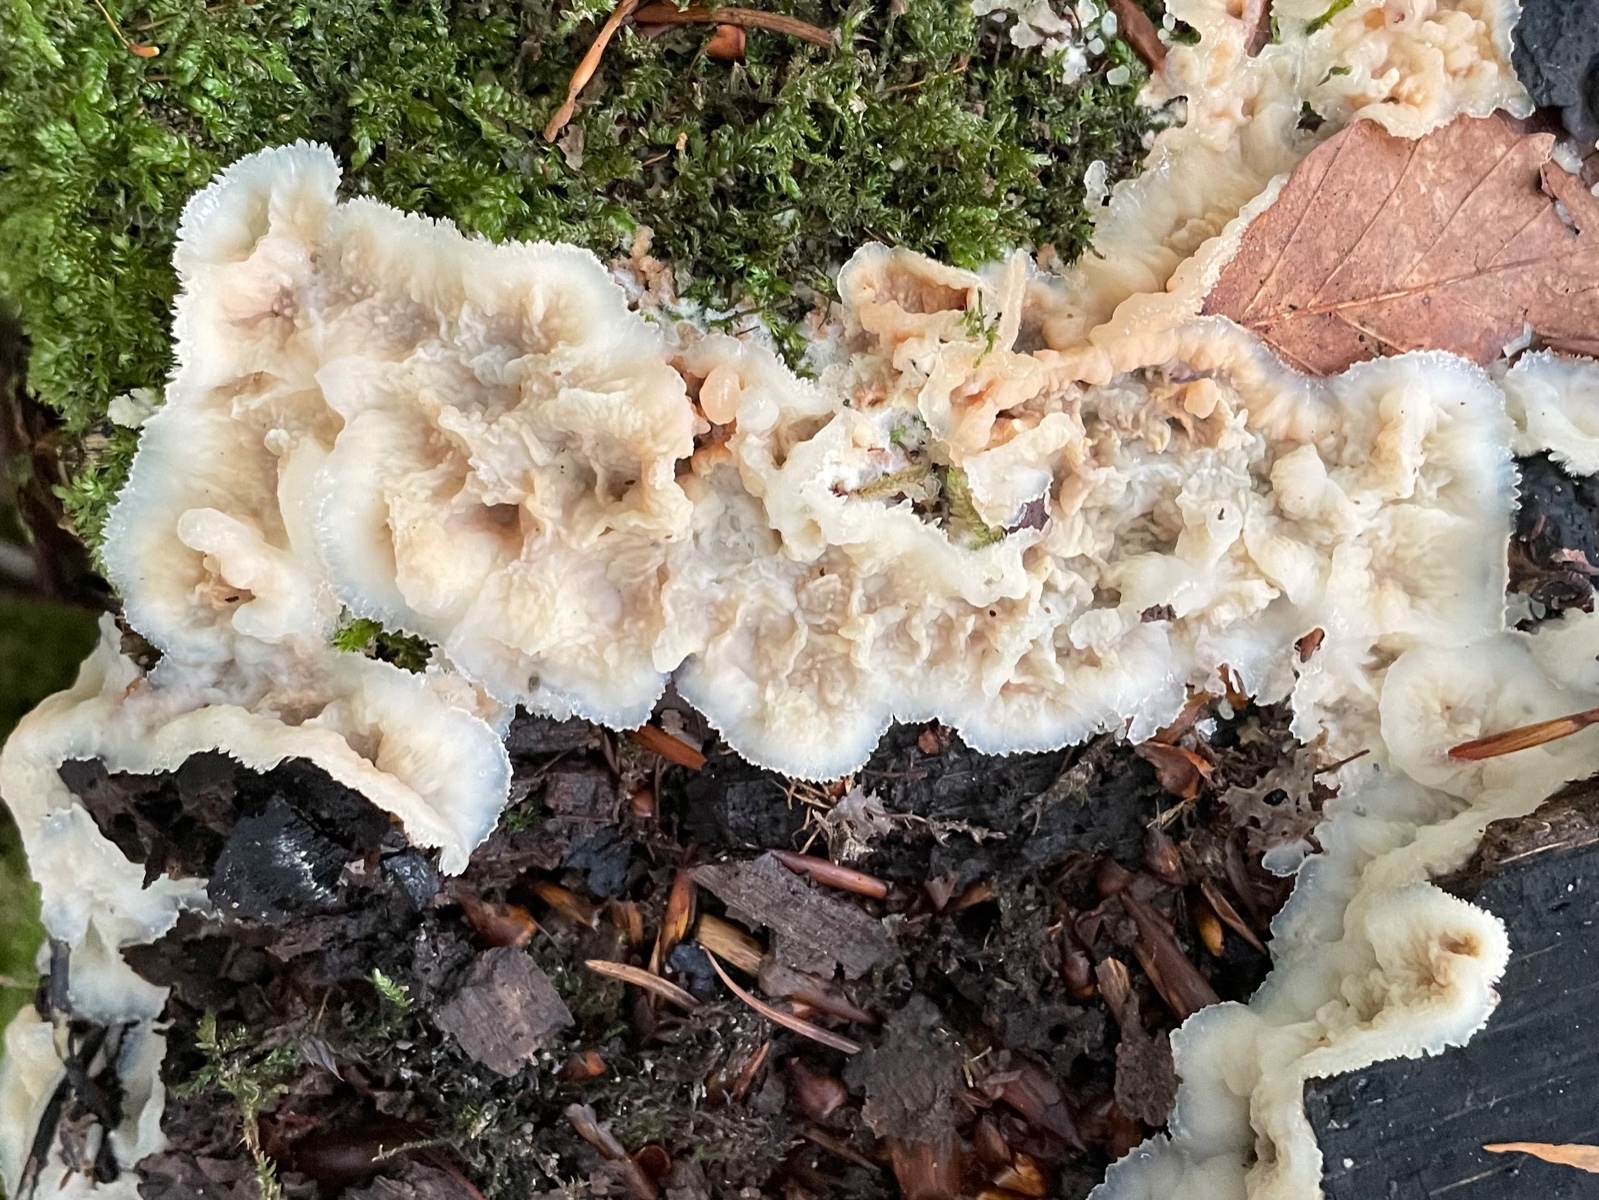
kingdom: Fungi
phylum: Basidiomycota
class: Agaricomycetes
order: Polyporales
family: Meruliaceae
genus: Phlebia
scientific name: Phlebia tremellosa
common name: bævrende åresvamp
